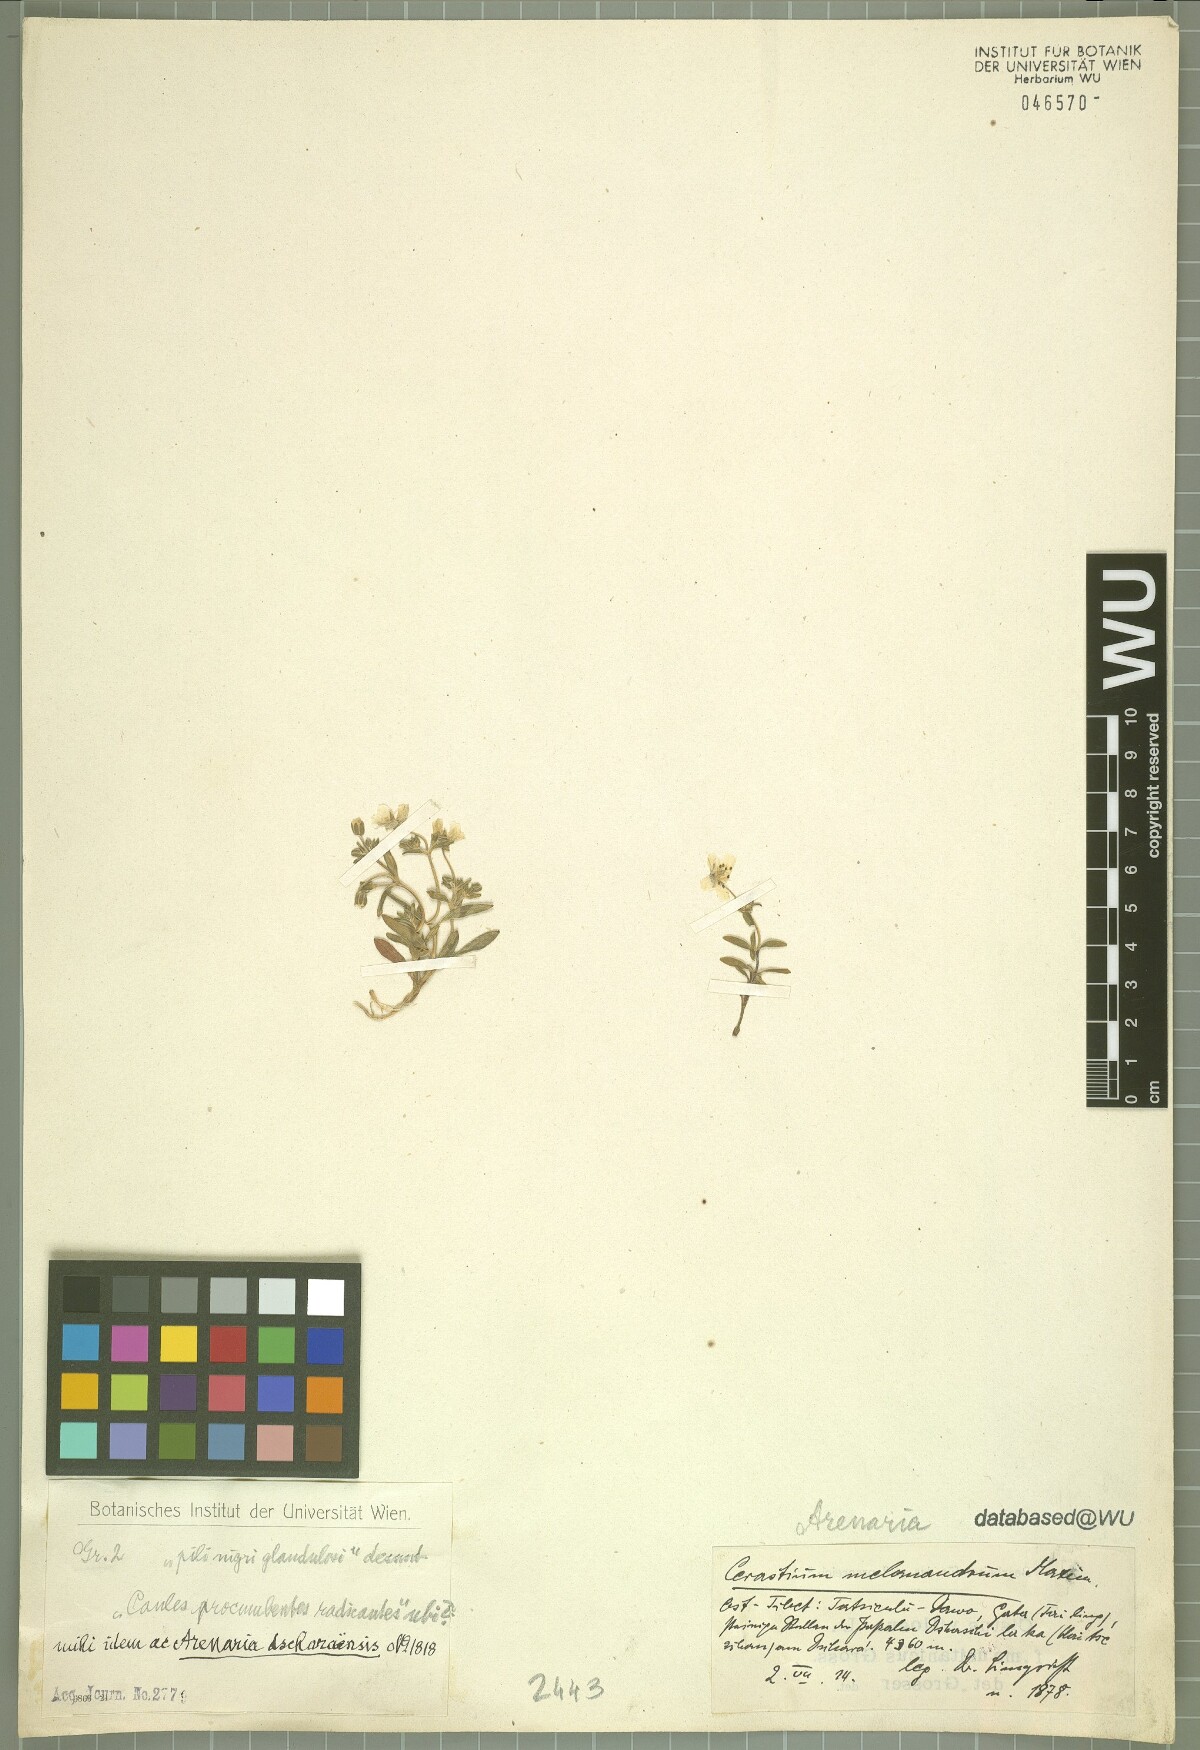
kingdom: Plantae
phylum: Tracheophyta
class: Magnoliopsida
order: Caryophyllales
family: Caryophyllaceae
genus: Odontostemma
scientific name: Odontostemma dsharaense
